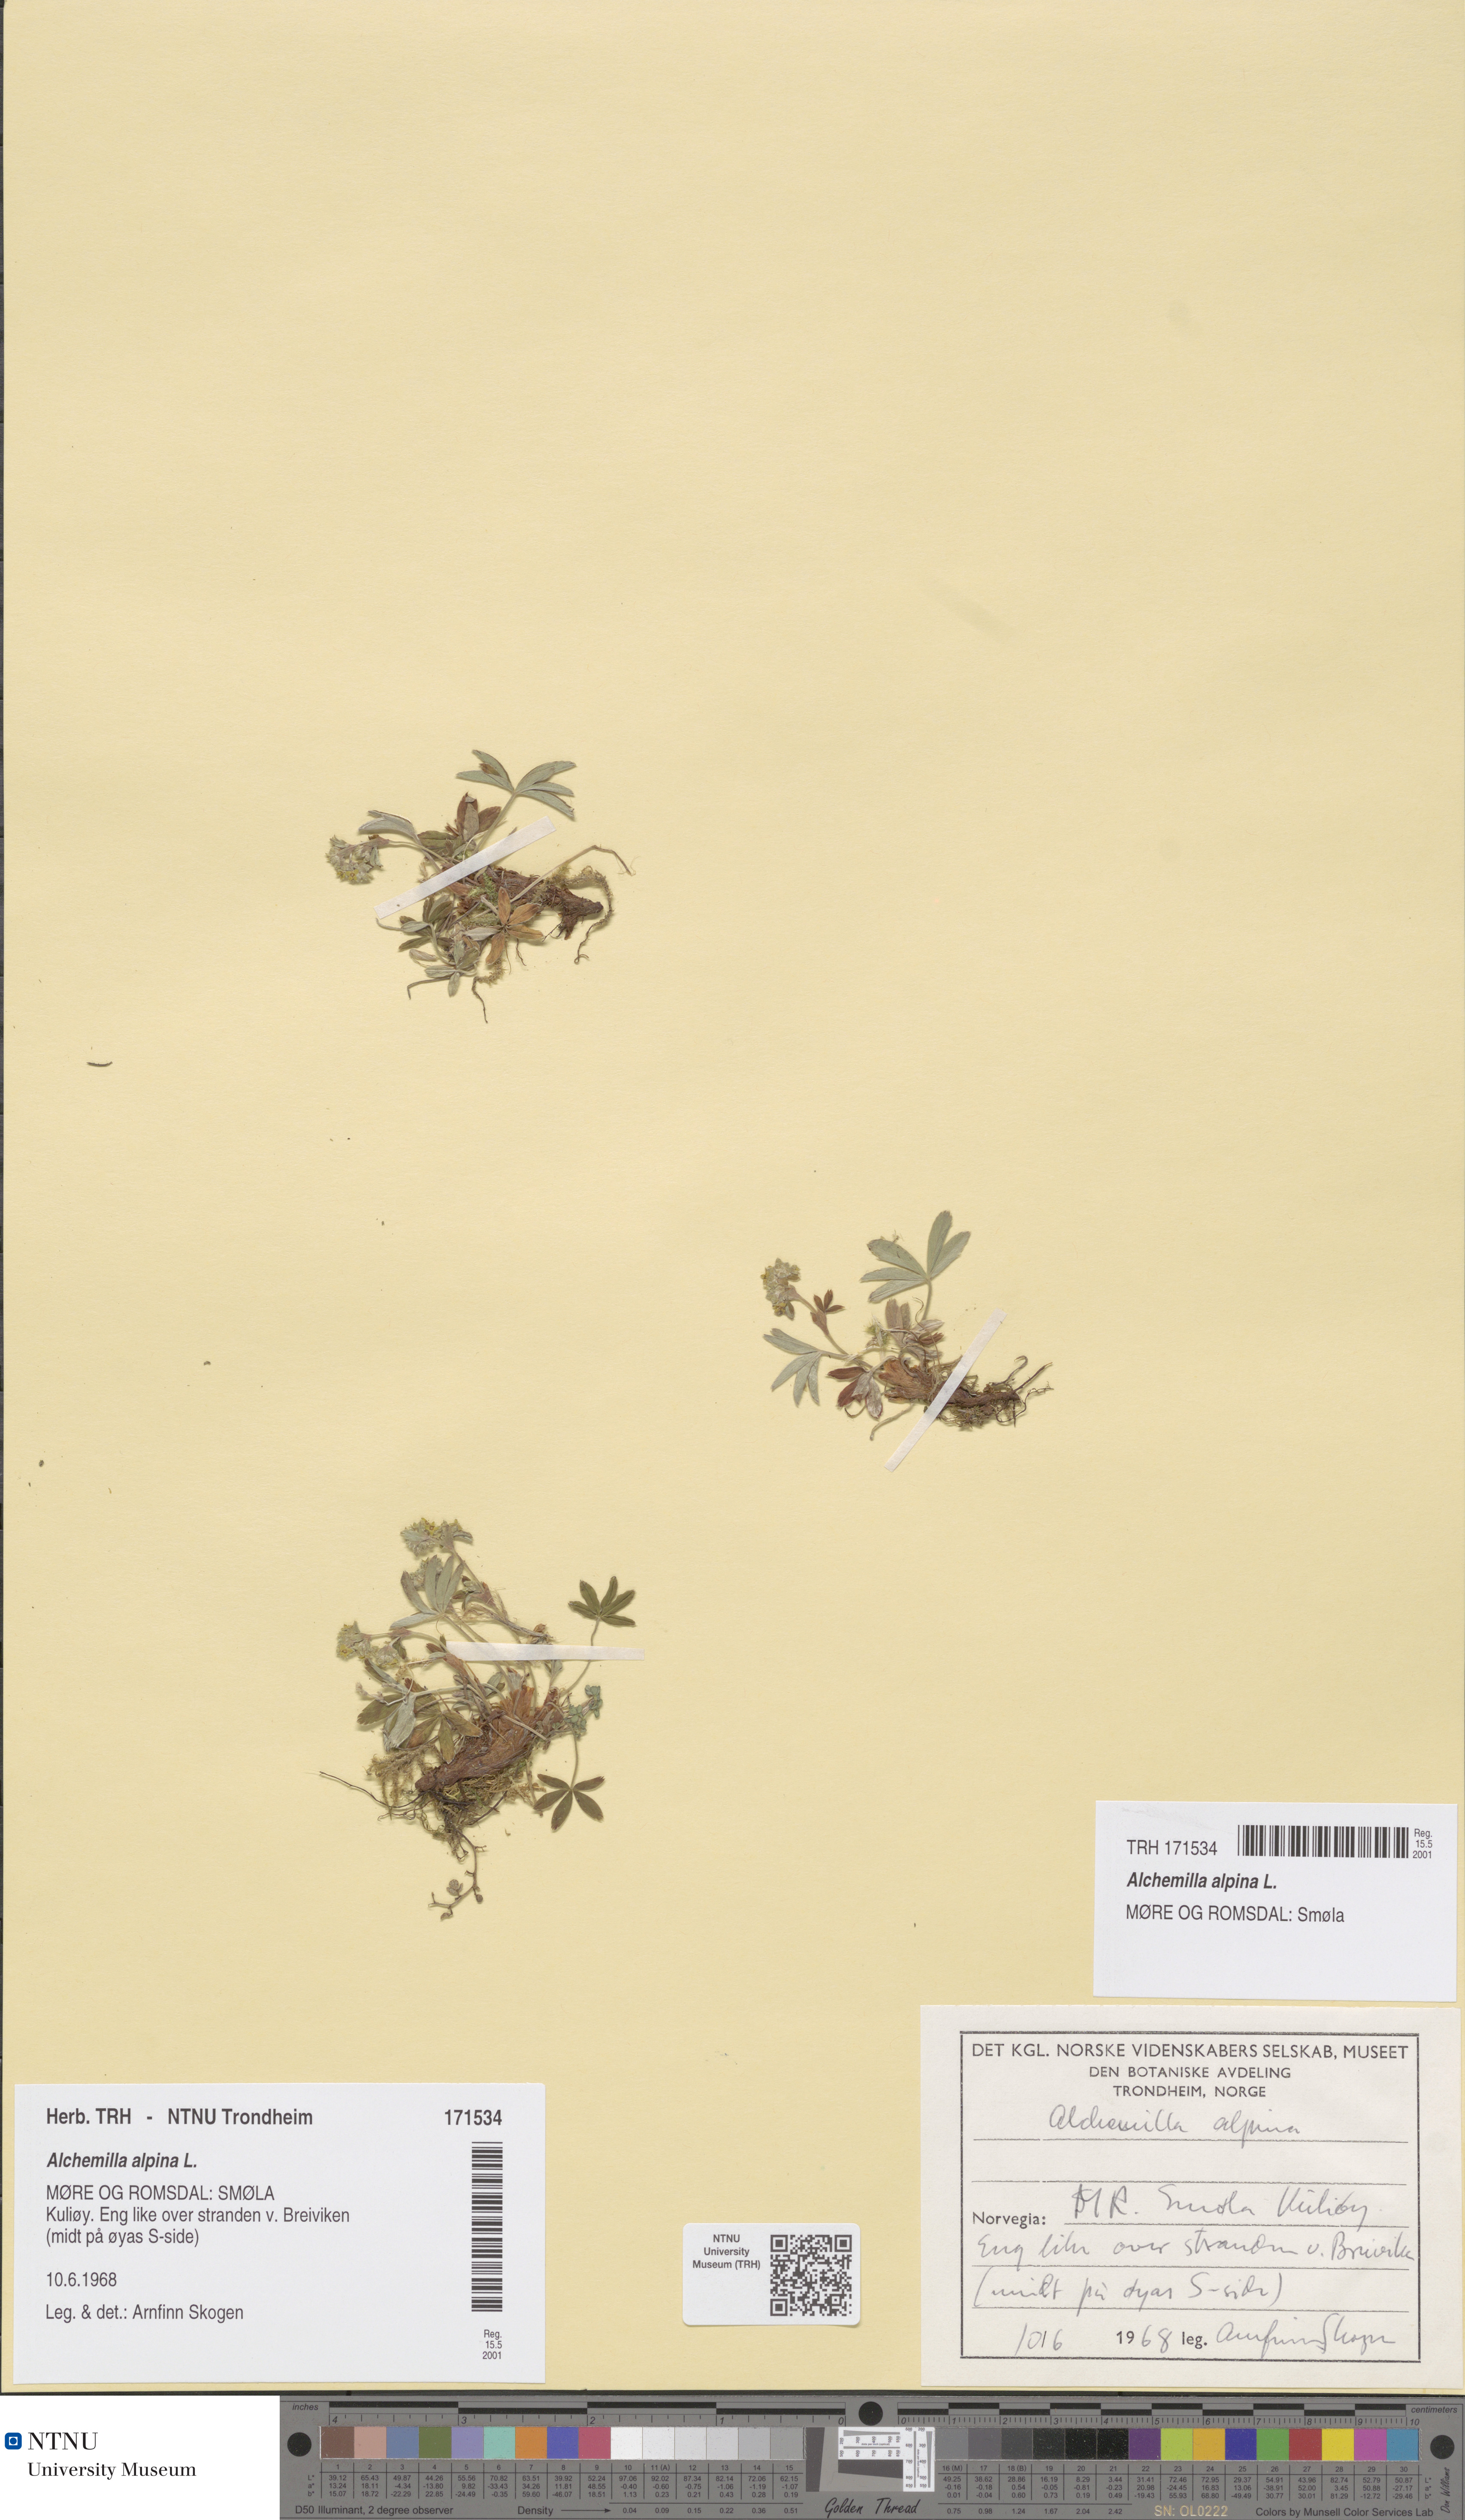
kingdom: Plantae
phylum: Tracheophyta
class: Magnoliopsida
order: Rosales
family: Rosaceae
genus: Alchemilla
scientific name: Alchemilla alpina
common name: Alpine lady's-mantle
